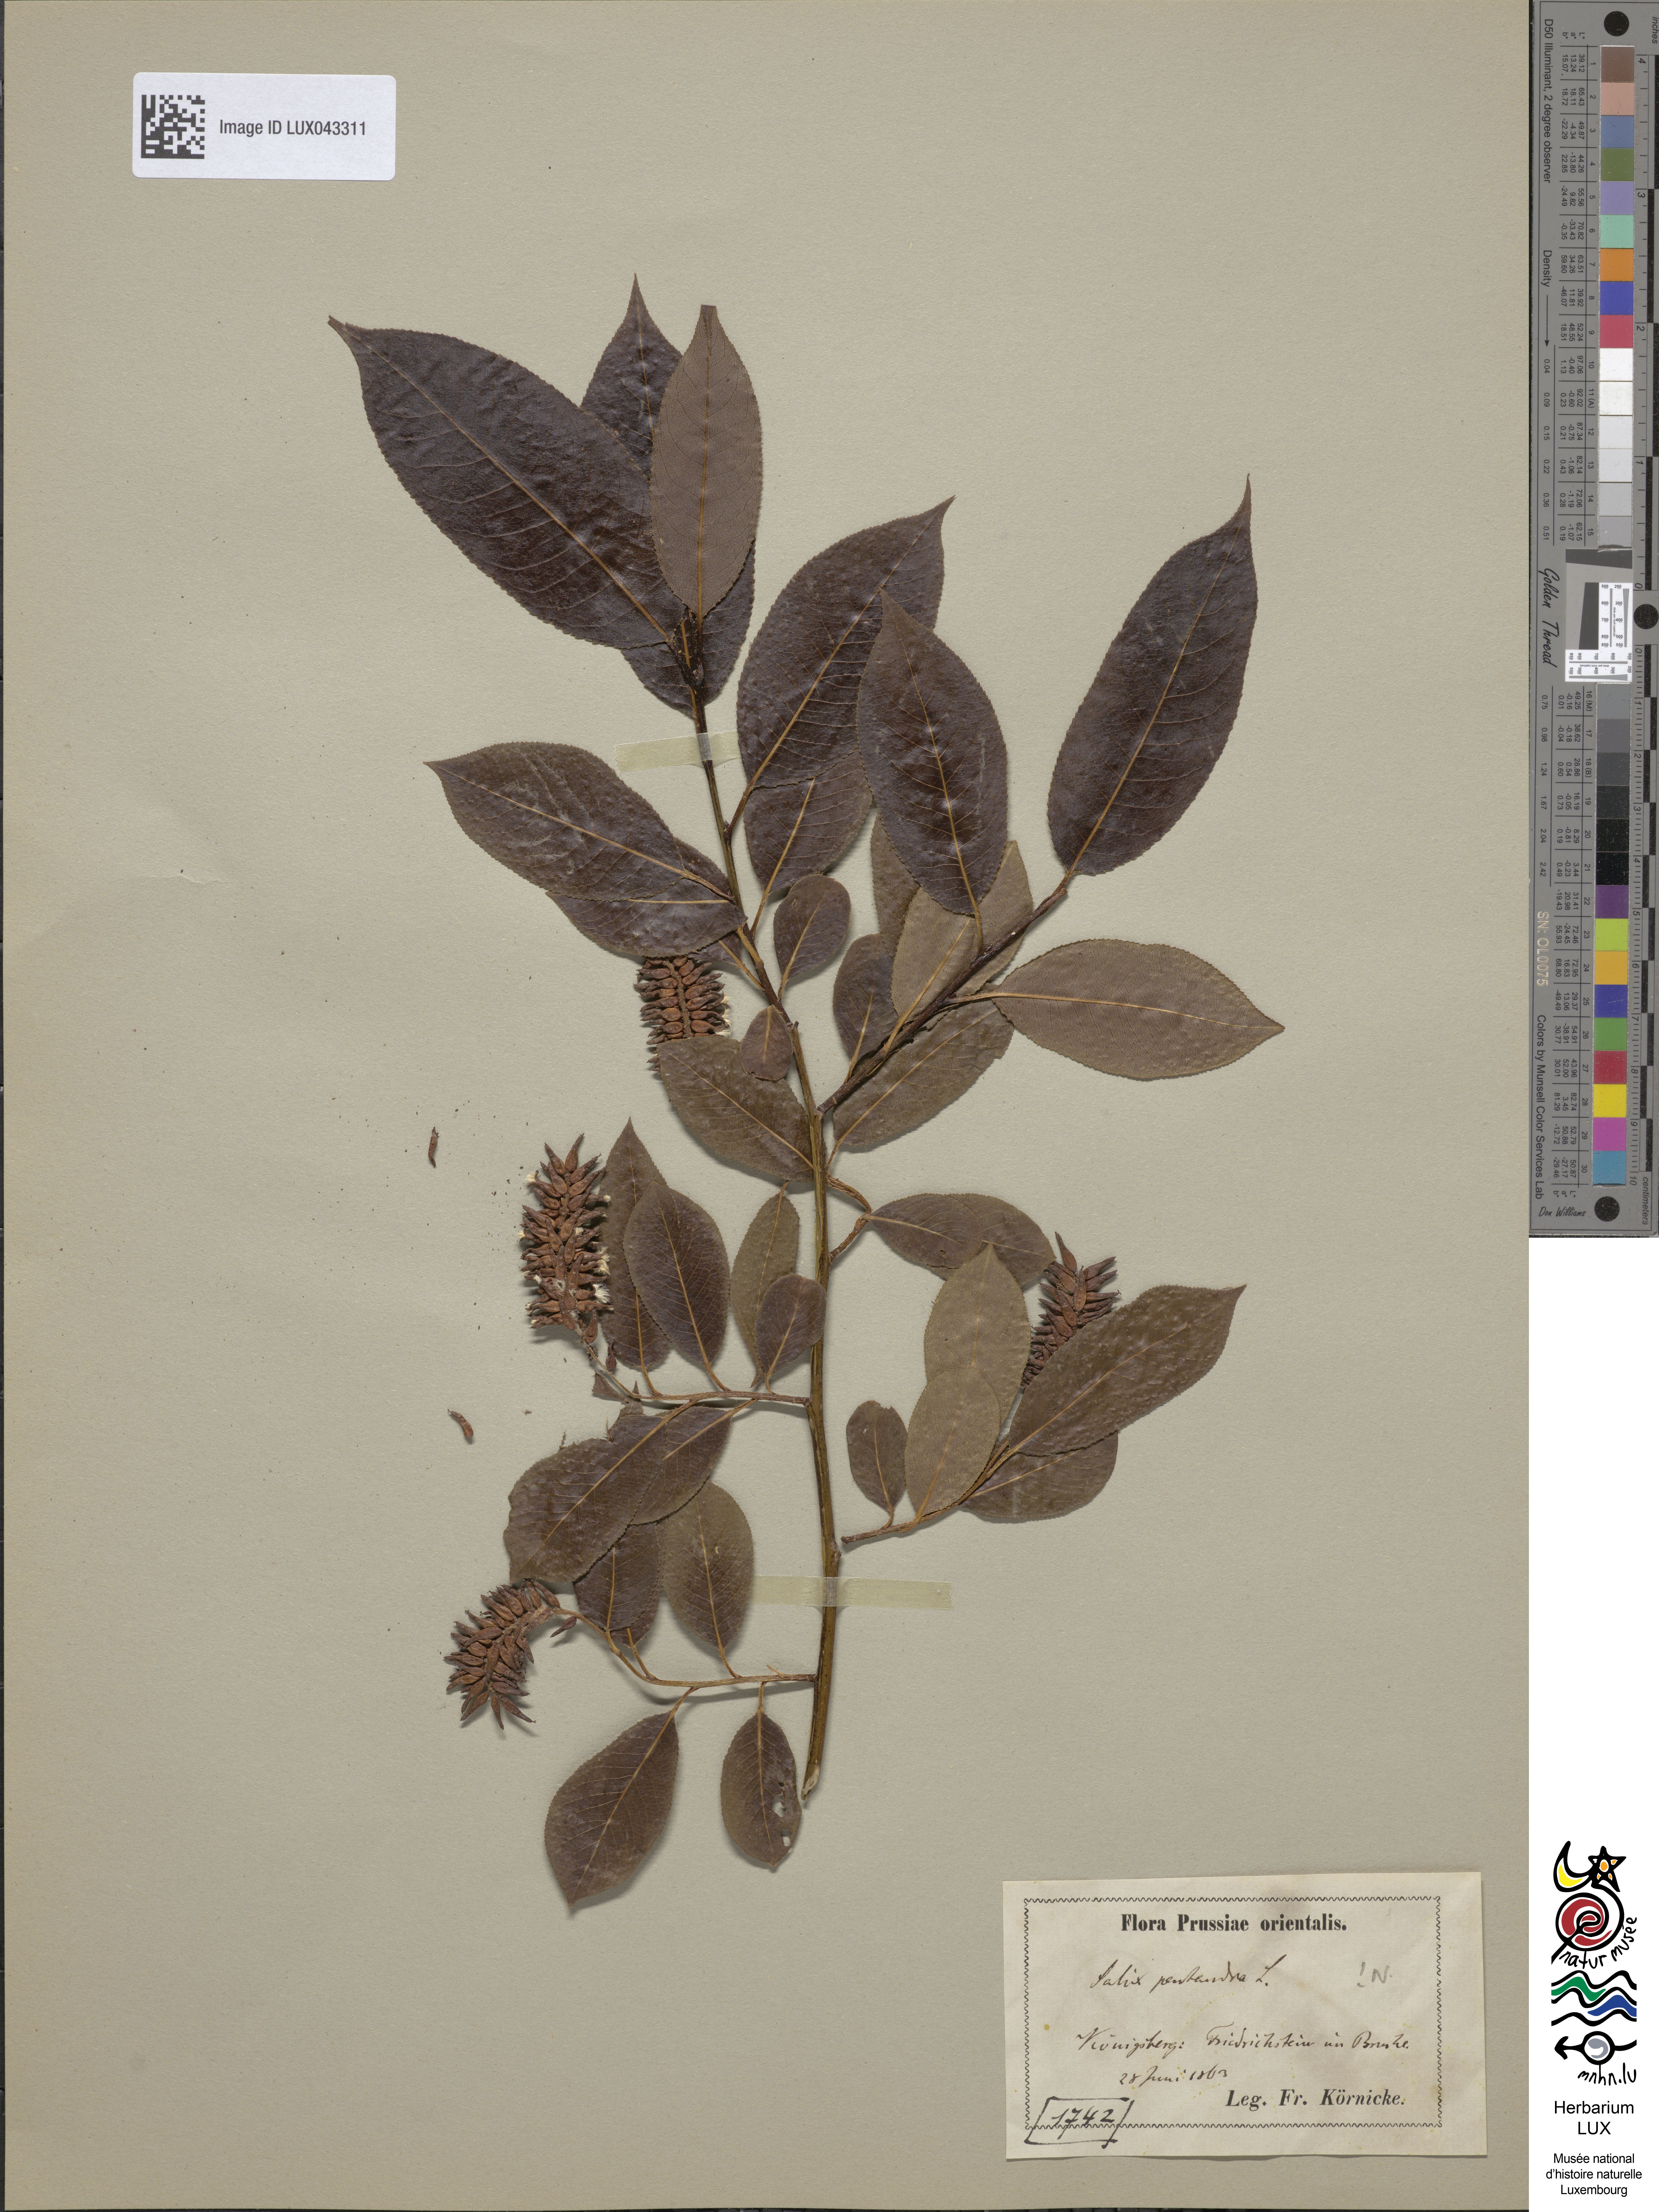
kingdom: Plantae
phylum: Tracheophyta
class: Magnoliopsida
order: Malpighiales
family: Salicaceae
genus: Salix
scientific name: Salix pentandra
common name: Bay willow
